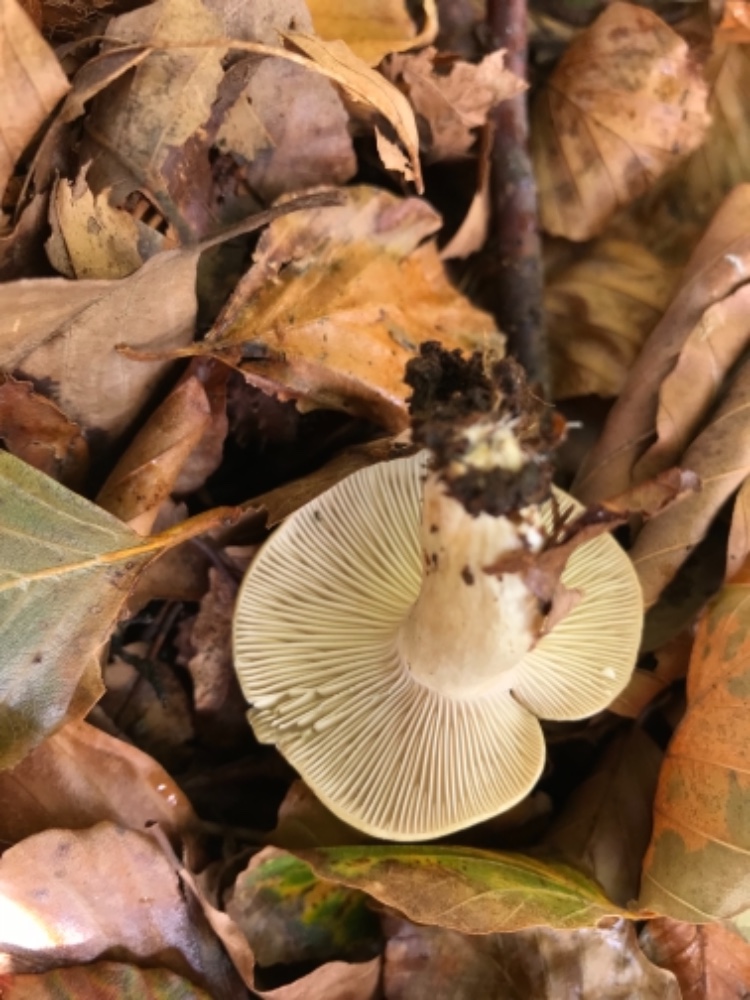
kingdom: Fungi
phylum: Basidiomycota
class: Agaricomycetes
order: Russulales
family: Russulaceae
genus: Lactarius
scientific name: Lactarius blennius
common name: dråbeplettet mælkehat
